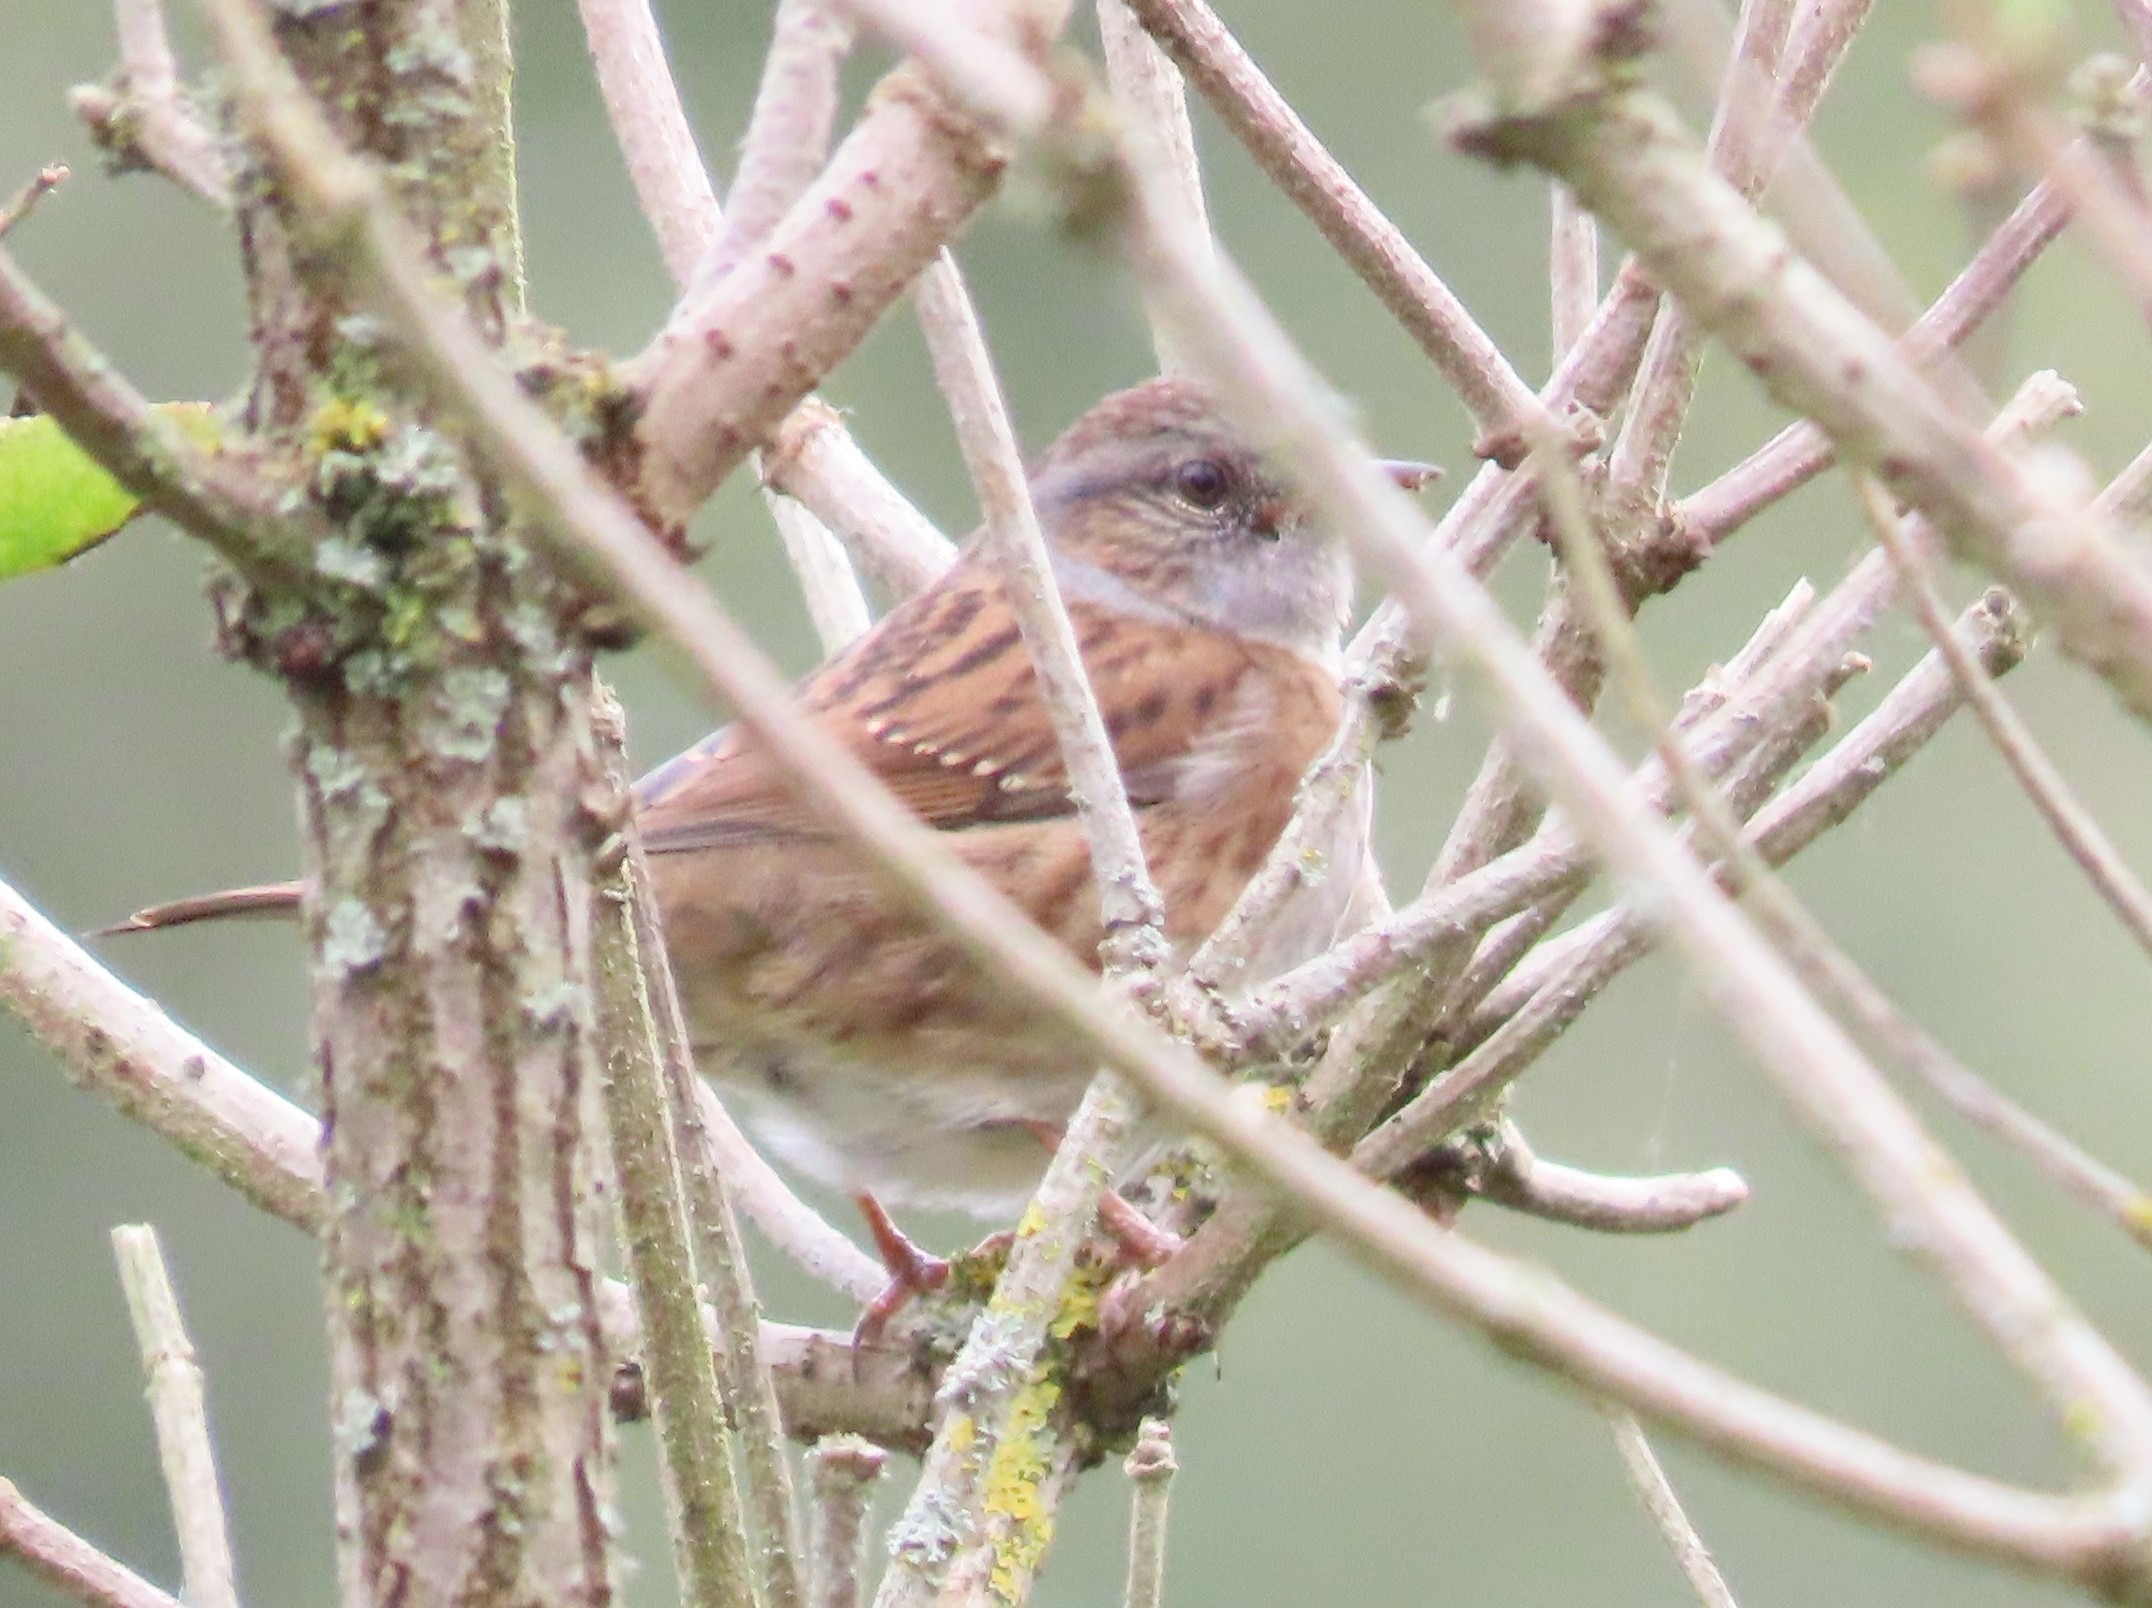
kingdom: Animalia
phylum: Chordata
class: Aves
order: Passeriformes
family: Prunellidae
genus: Prunella
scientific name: Prunella modularis
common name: Jernspurv
